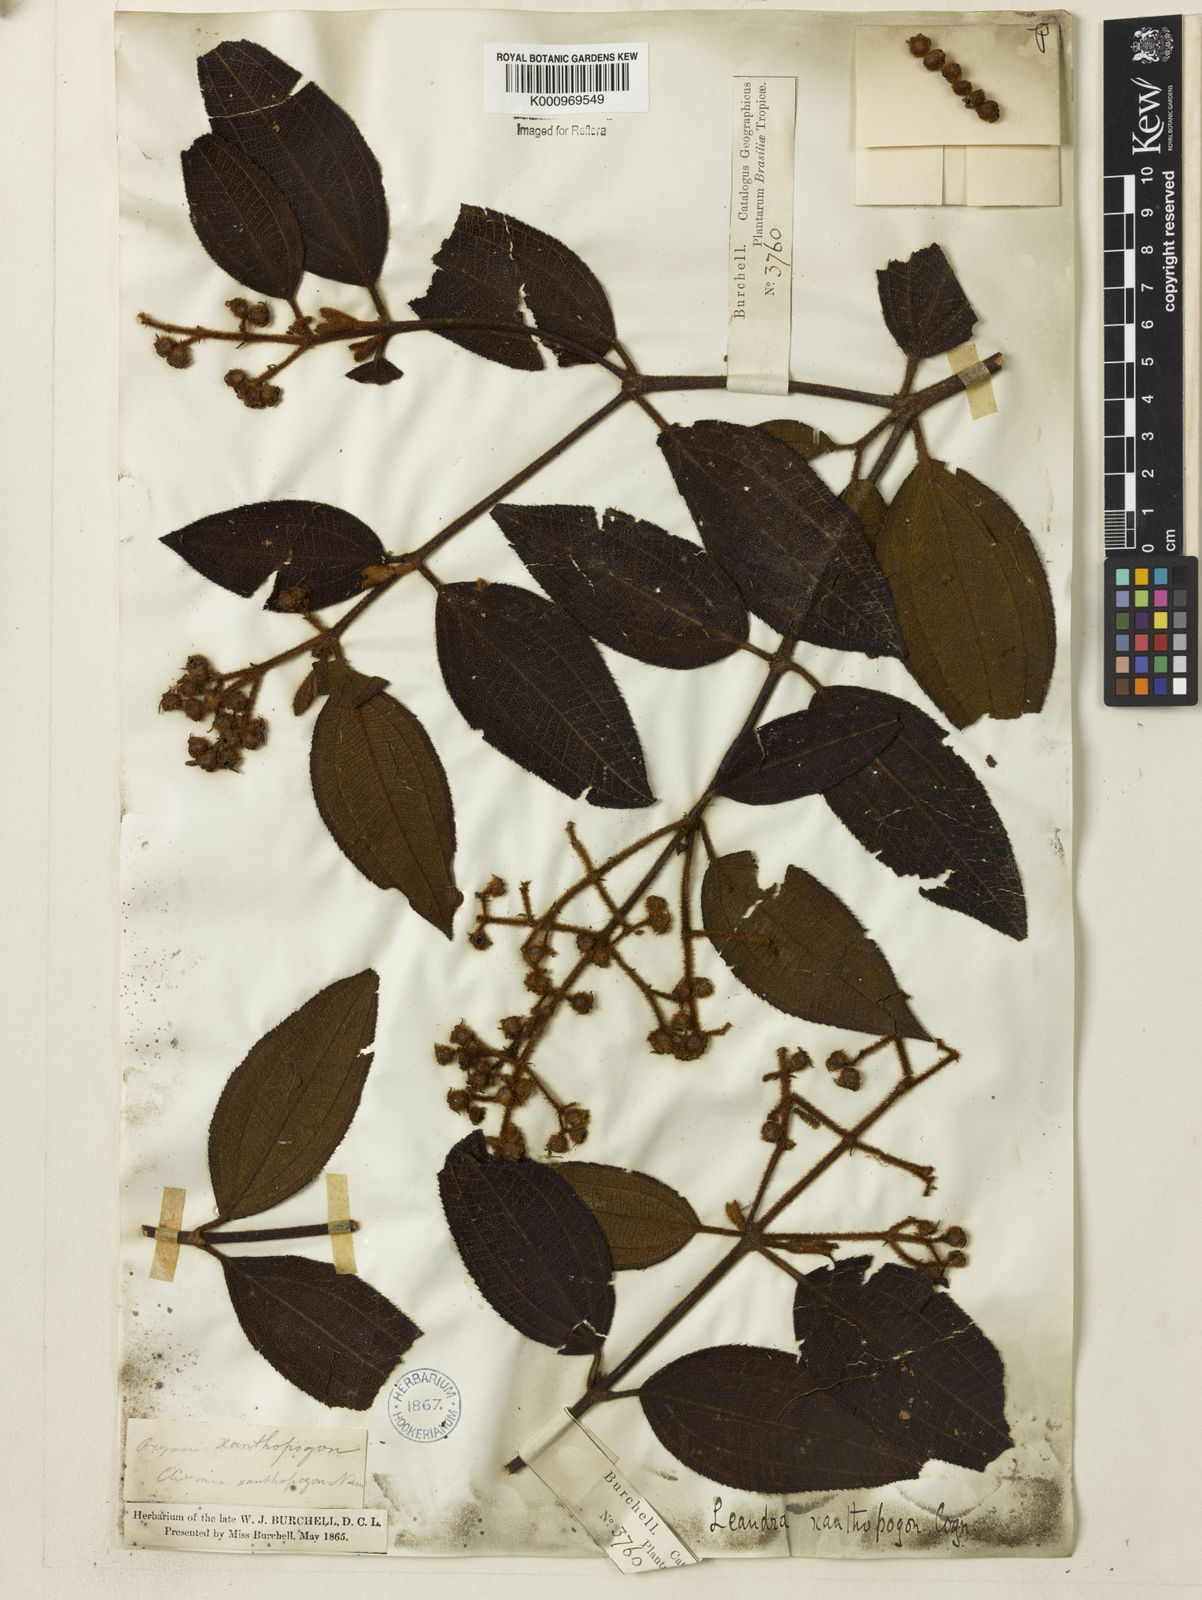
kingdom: Plantae
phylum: Tracheophyta
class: Magnoliopsida
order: Myrtales
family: Melastomataceae
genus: Miconia
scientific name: Miconia xanthopogon
